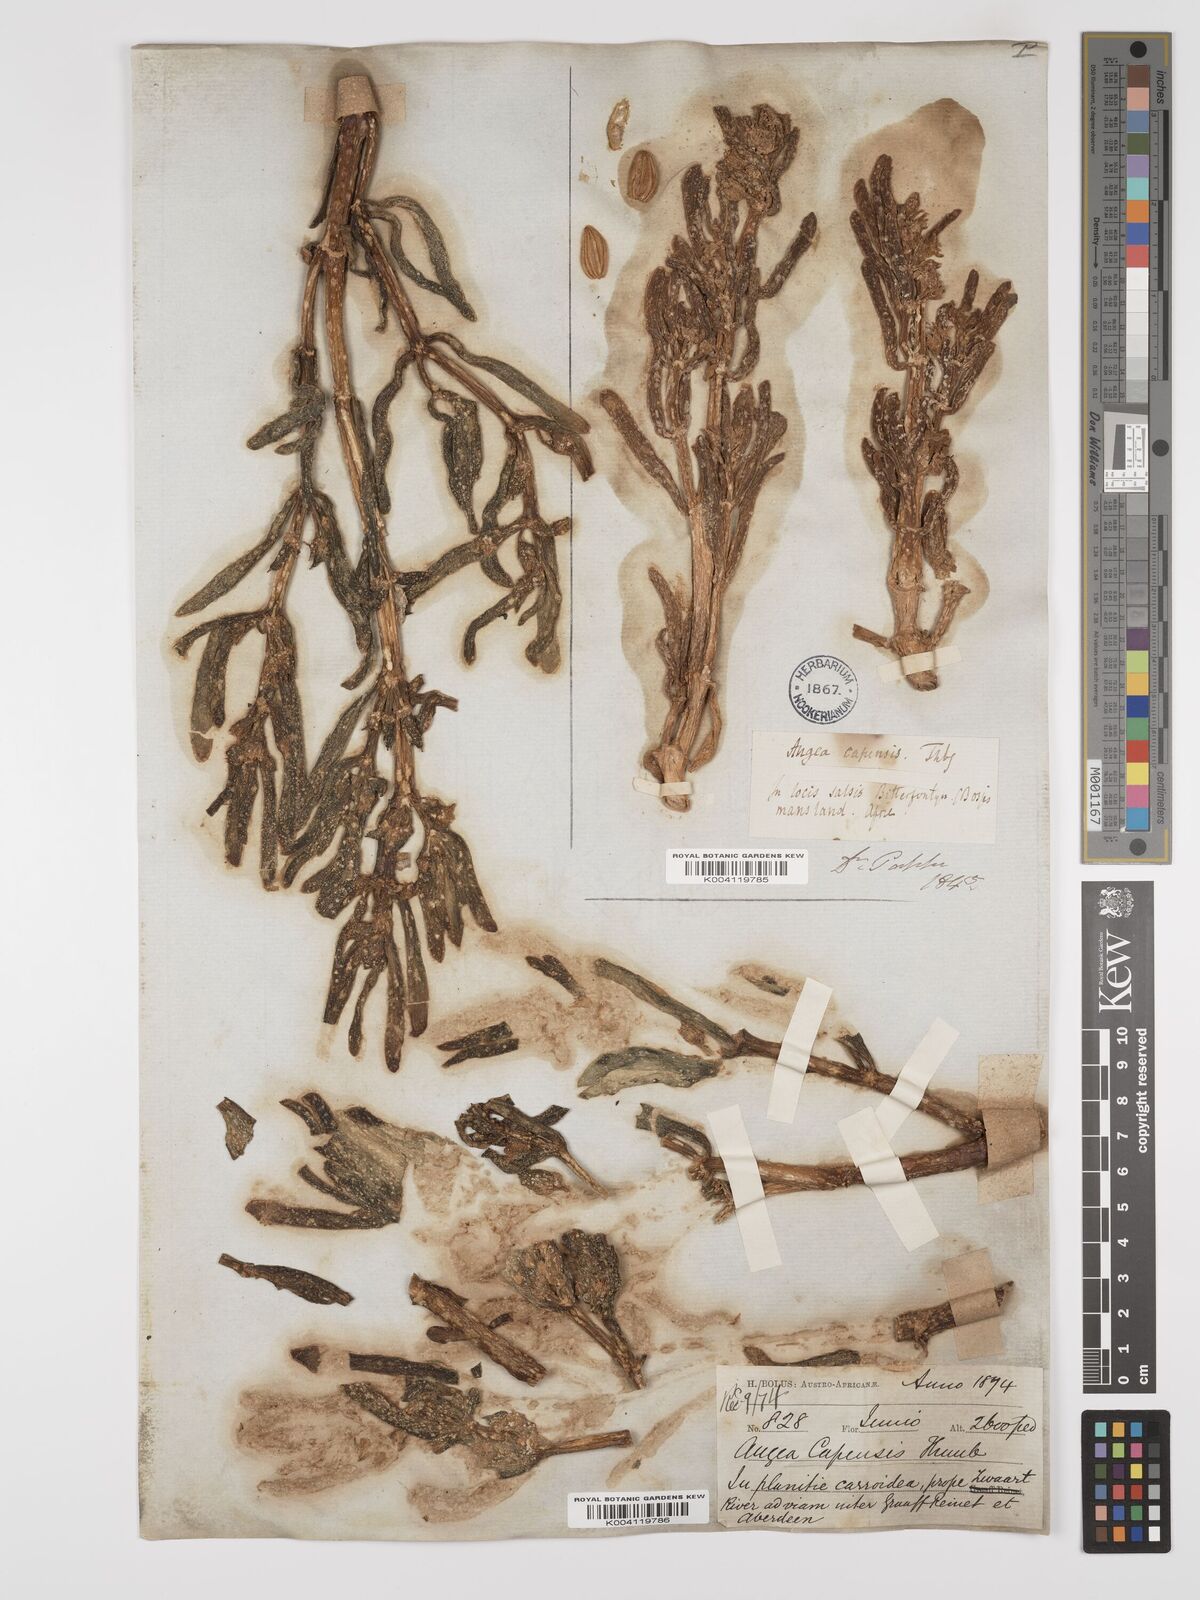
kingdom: Plantae
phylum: Tracheophyta
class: Magnoliopsida
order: Zygophyllales
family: Zygophyllaceae
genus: Augea
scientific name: Augea capensis
